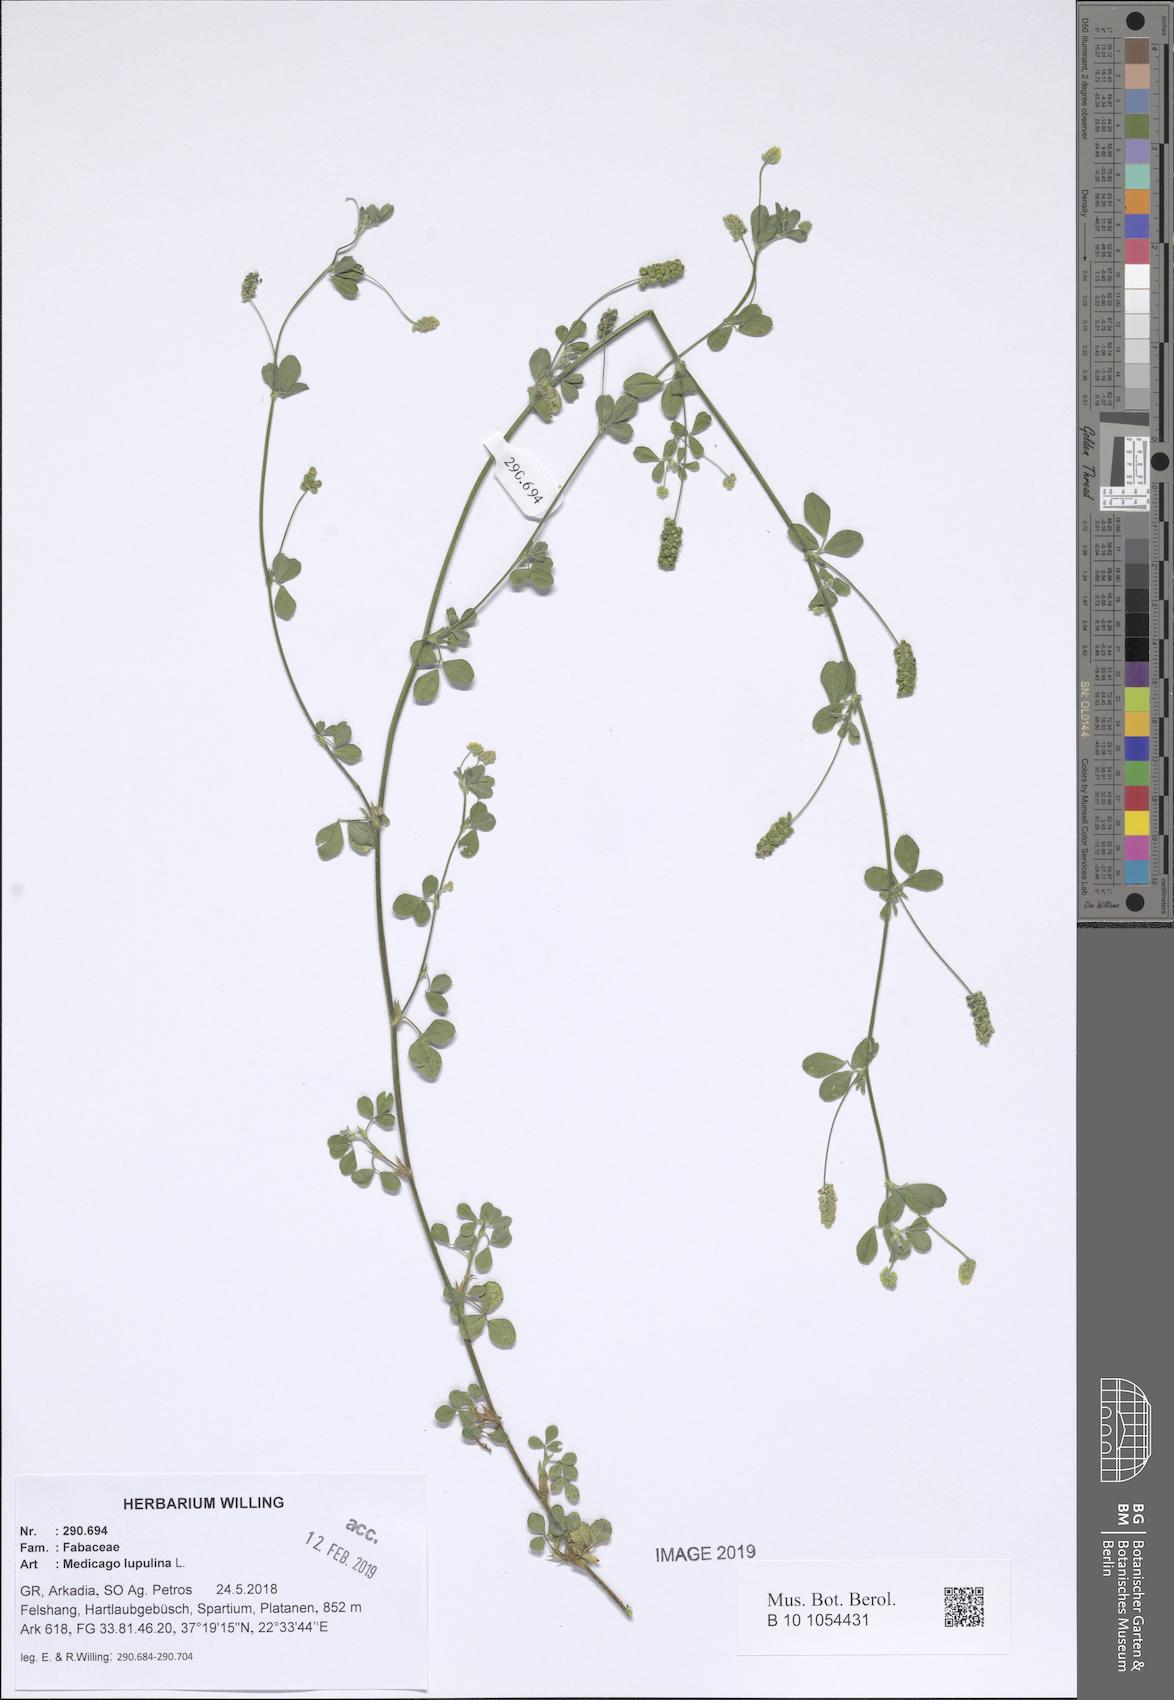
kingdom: Plantae
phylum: Tracheophyta
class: Magnoliopsida
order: Fabales
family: Fabaceae
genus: Medicago
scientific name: Medicago lupulina
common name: Black medick
